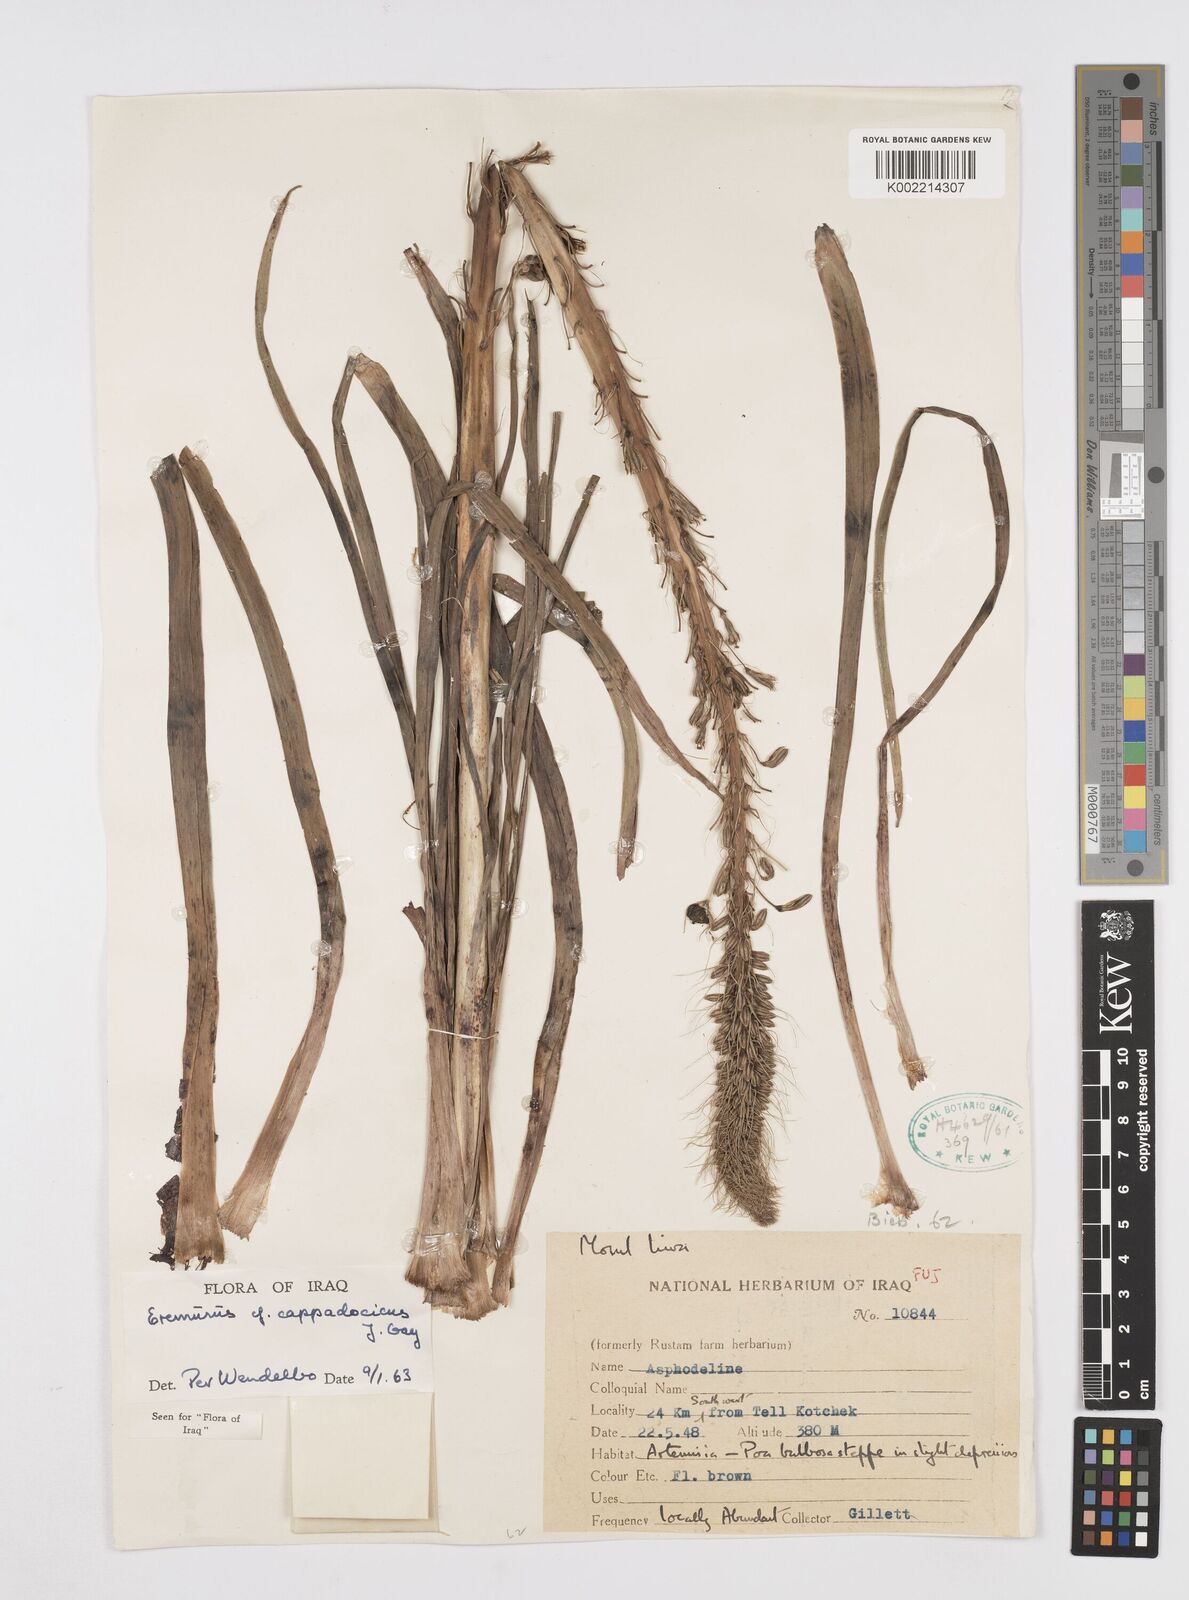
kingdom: Plantae
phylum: Tracheophyta
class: Liliopsida
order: Asparagales
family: Asphodelaceae
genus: Eremurus
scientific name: Eremurus cappadocicus
